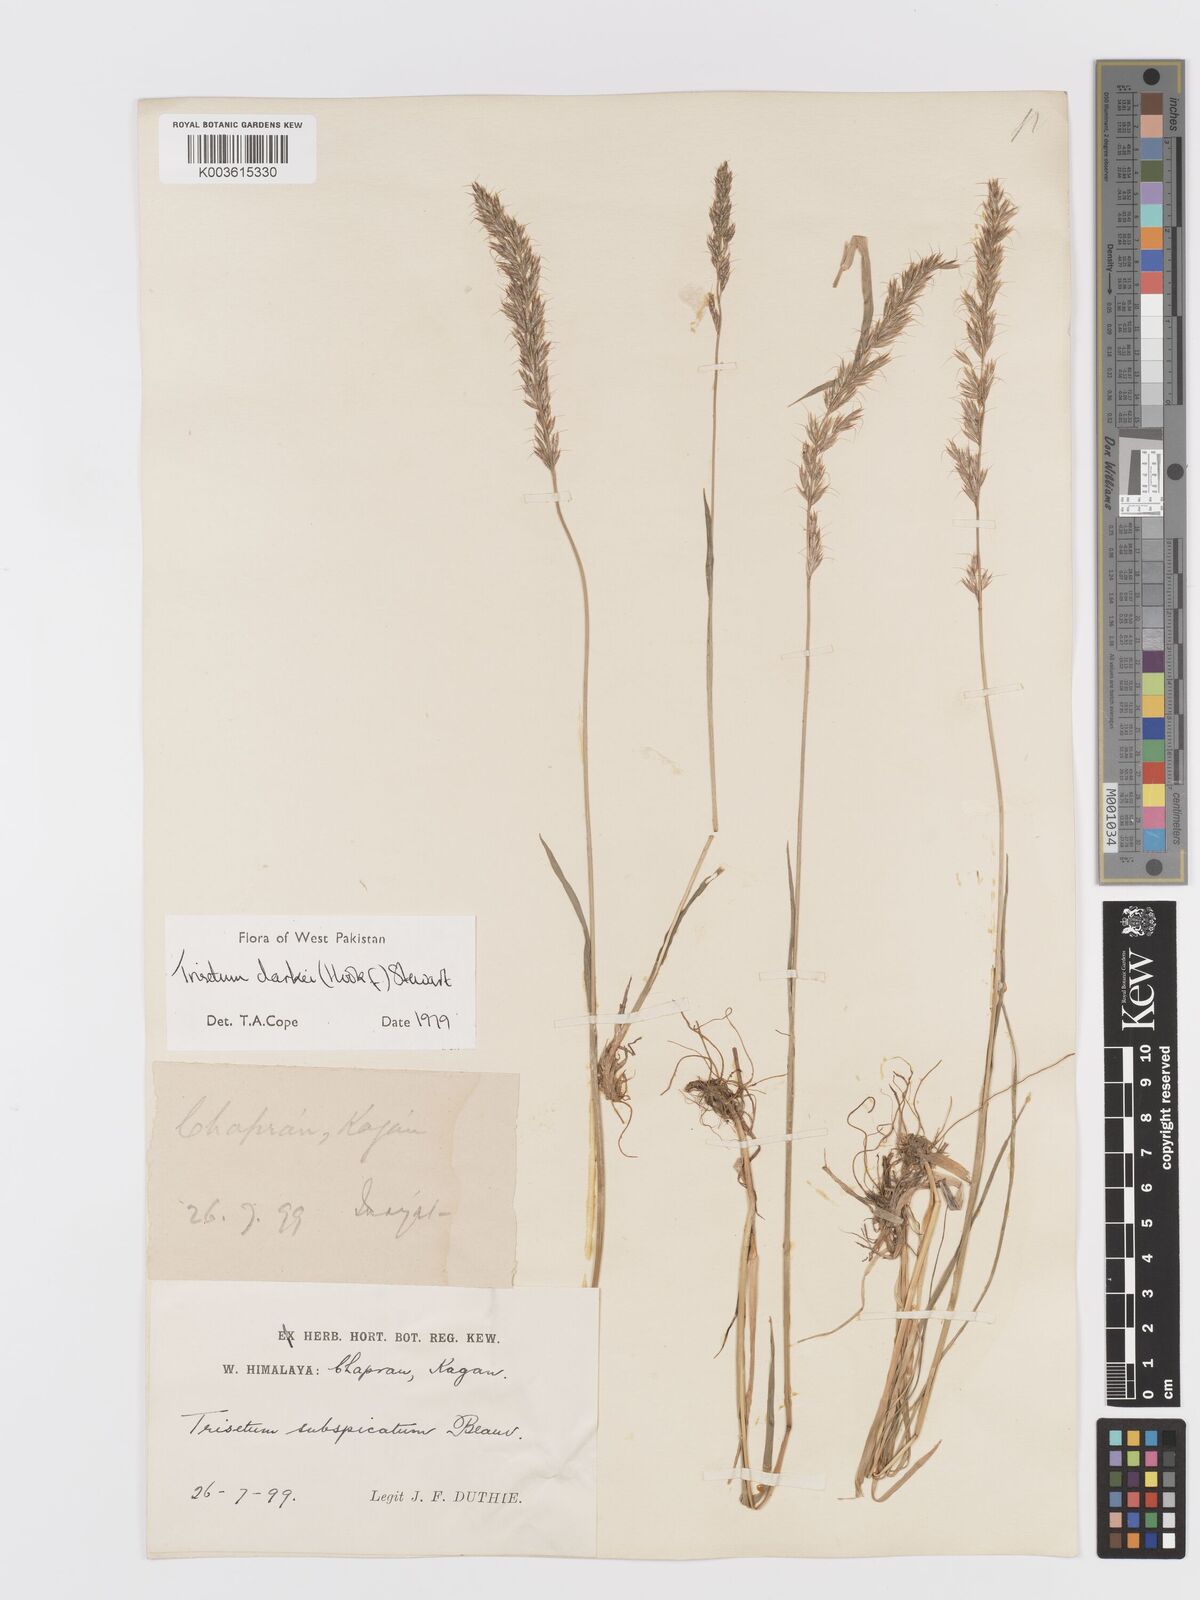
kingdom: Plantae
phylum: Tracheophyta
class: Liliopsida
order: Poales
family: Poaceae
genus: Trisetum
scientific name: Trisetum clarkei
